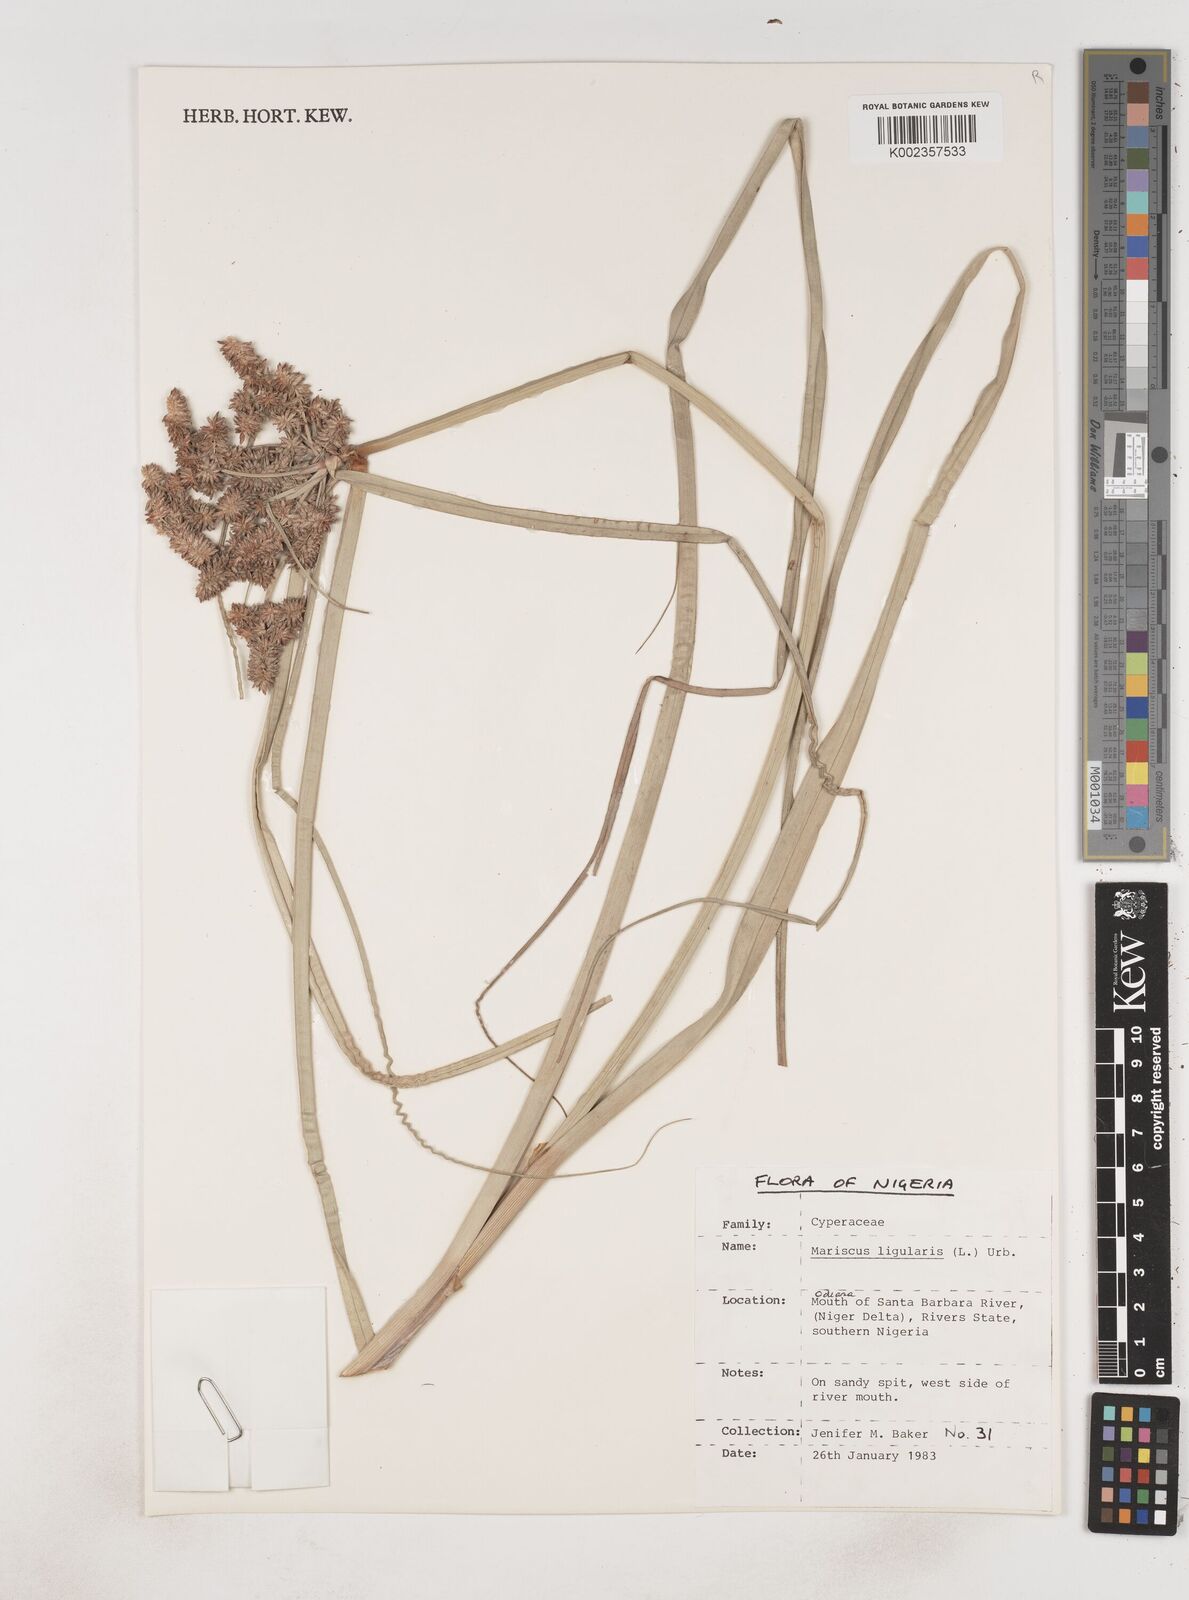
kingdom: Plantae
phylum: Tracheophyta
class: Liliopsida
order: Poales
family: Cyperaceae
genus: Cyperus
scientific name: Cyperus ligularis
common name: Swamp flat sedge
